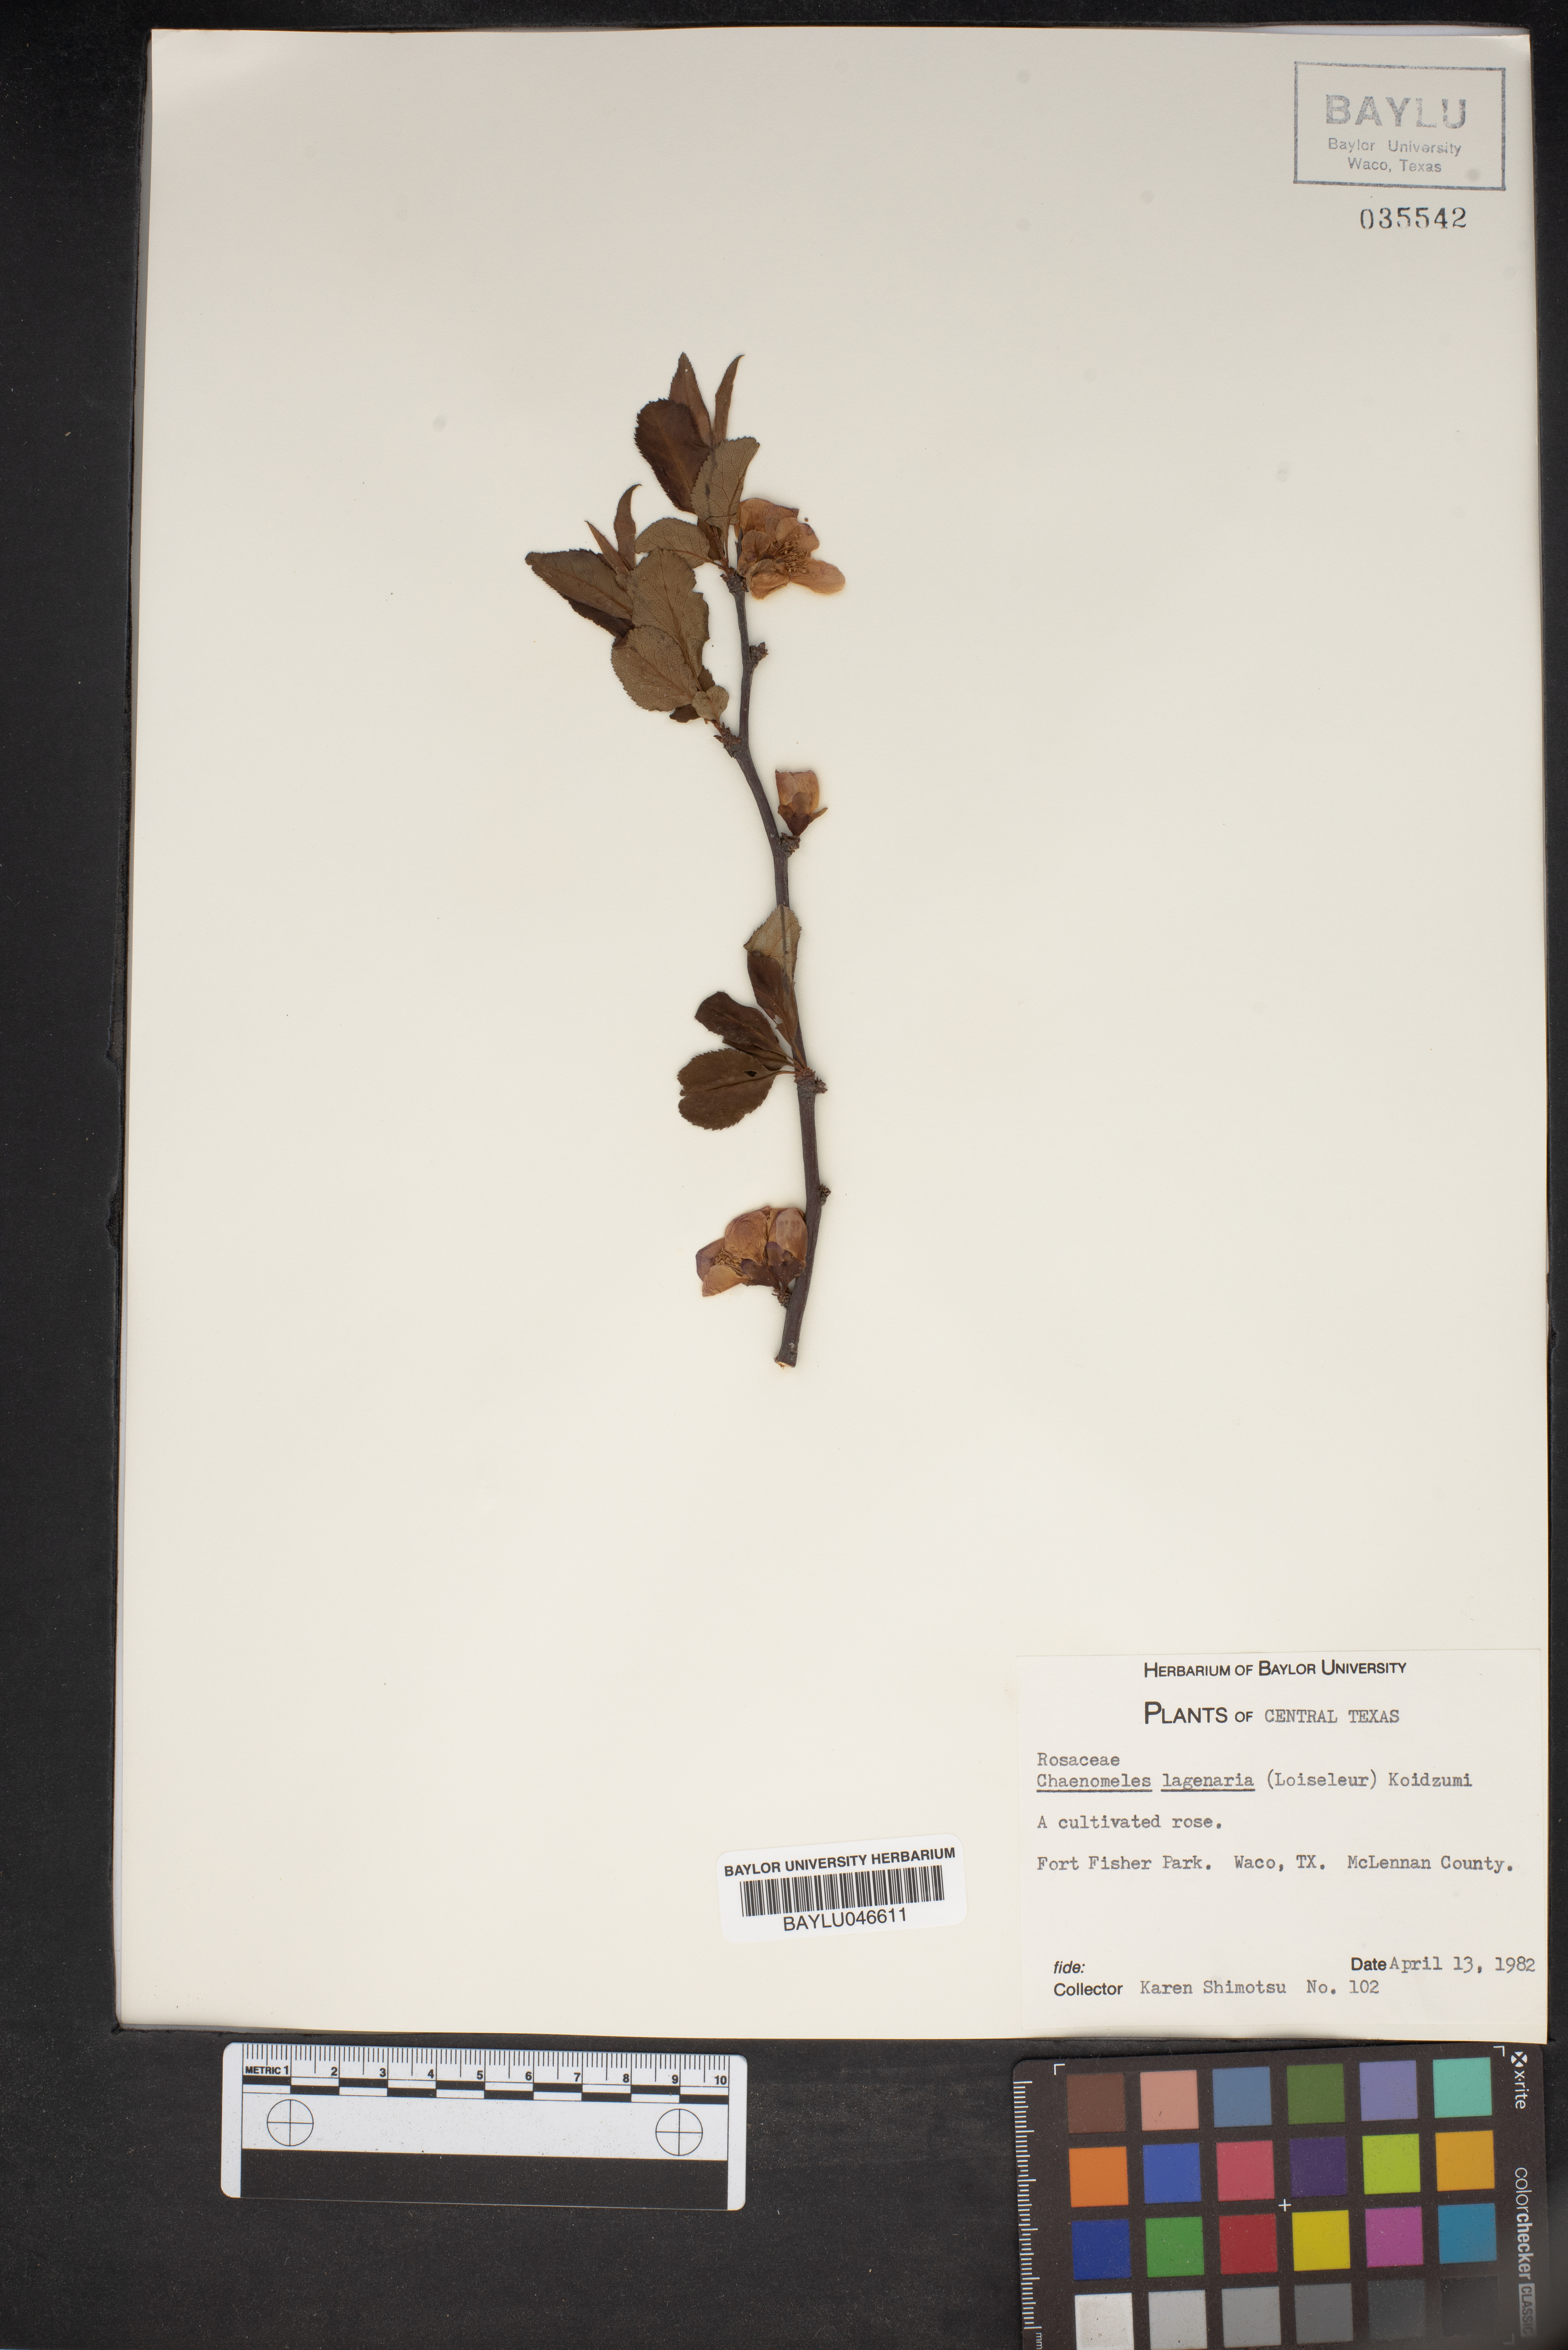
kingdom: Plantae
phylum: Tracheophyta
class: Magnoliopsida
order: Rosales
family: Rosaceae
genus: Chaenomeles
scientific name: Chaenomeles
